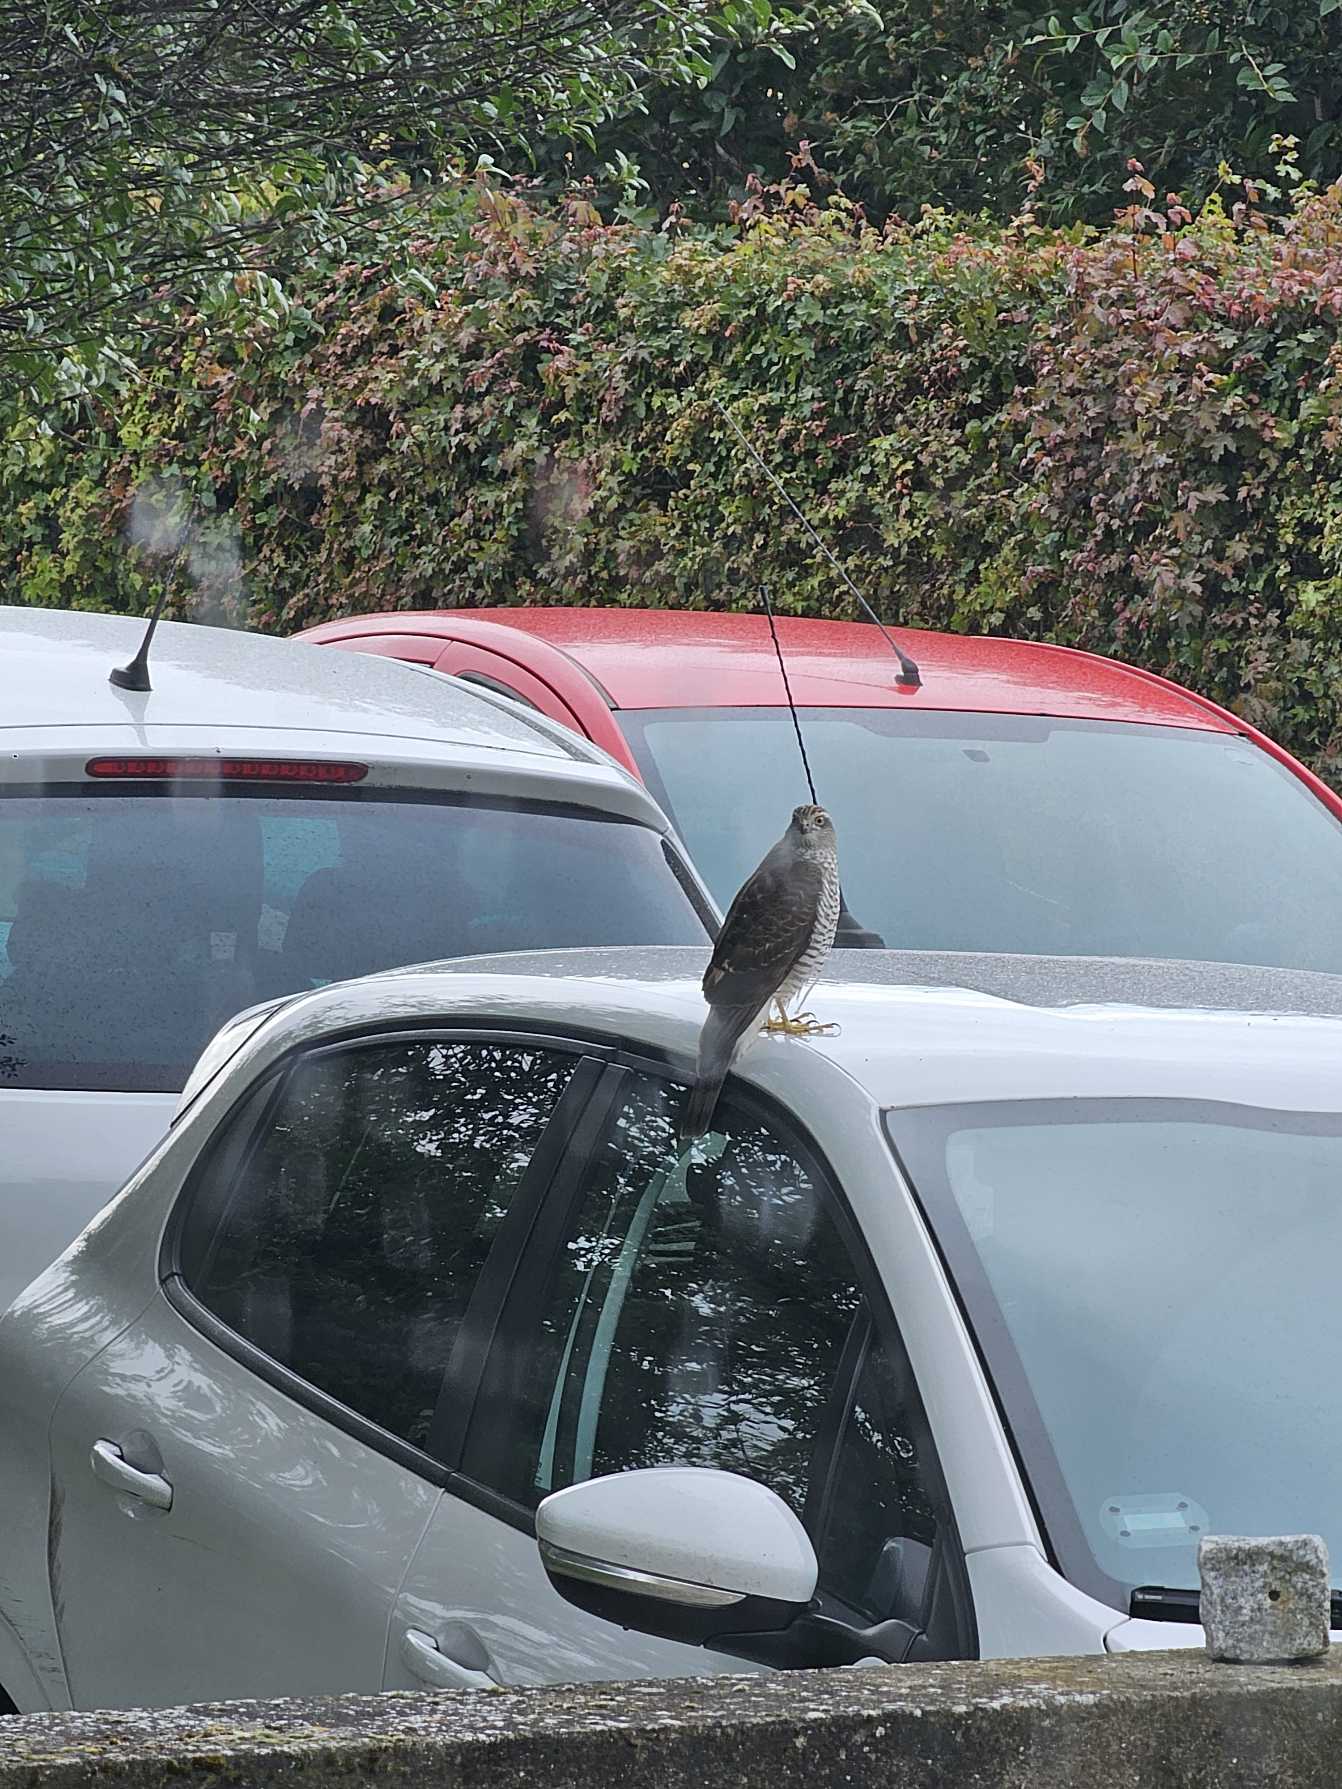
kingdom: Animalia
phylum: Chordata
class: Aves
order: Accipitriformes
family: Accipitridae
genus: Accipiter
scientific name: Accipiter nisus
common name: Spurvehøg
